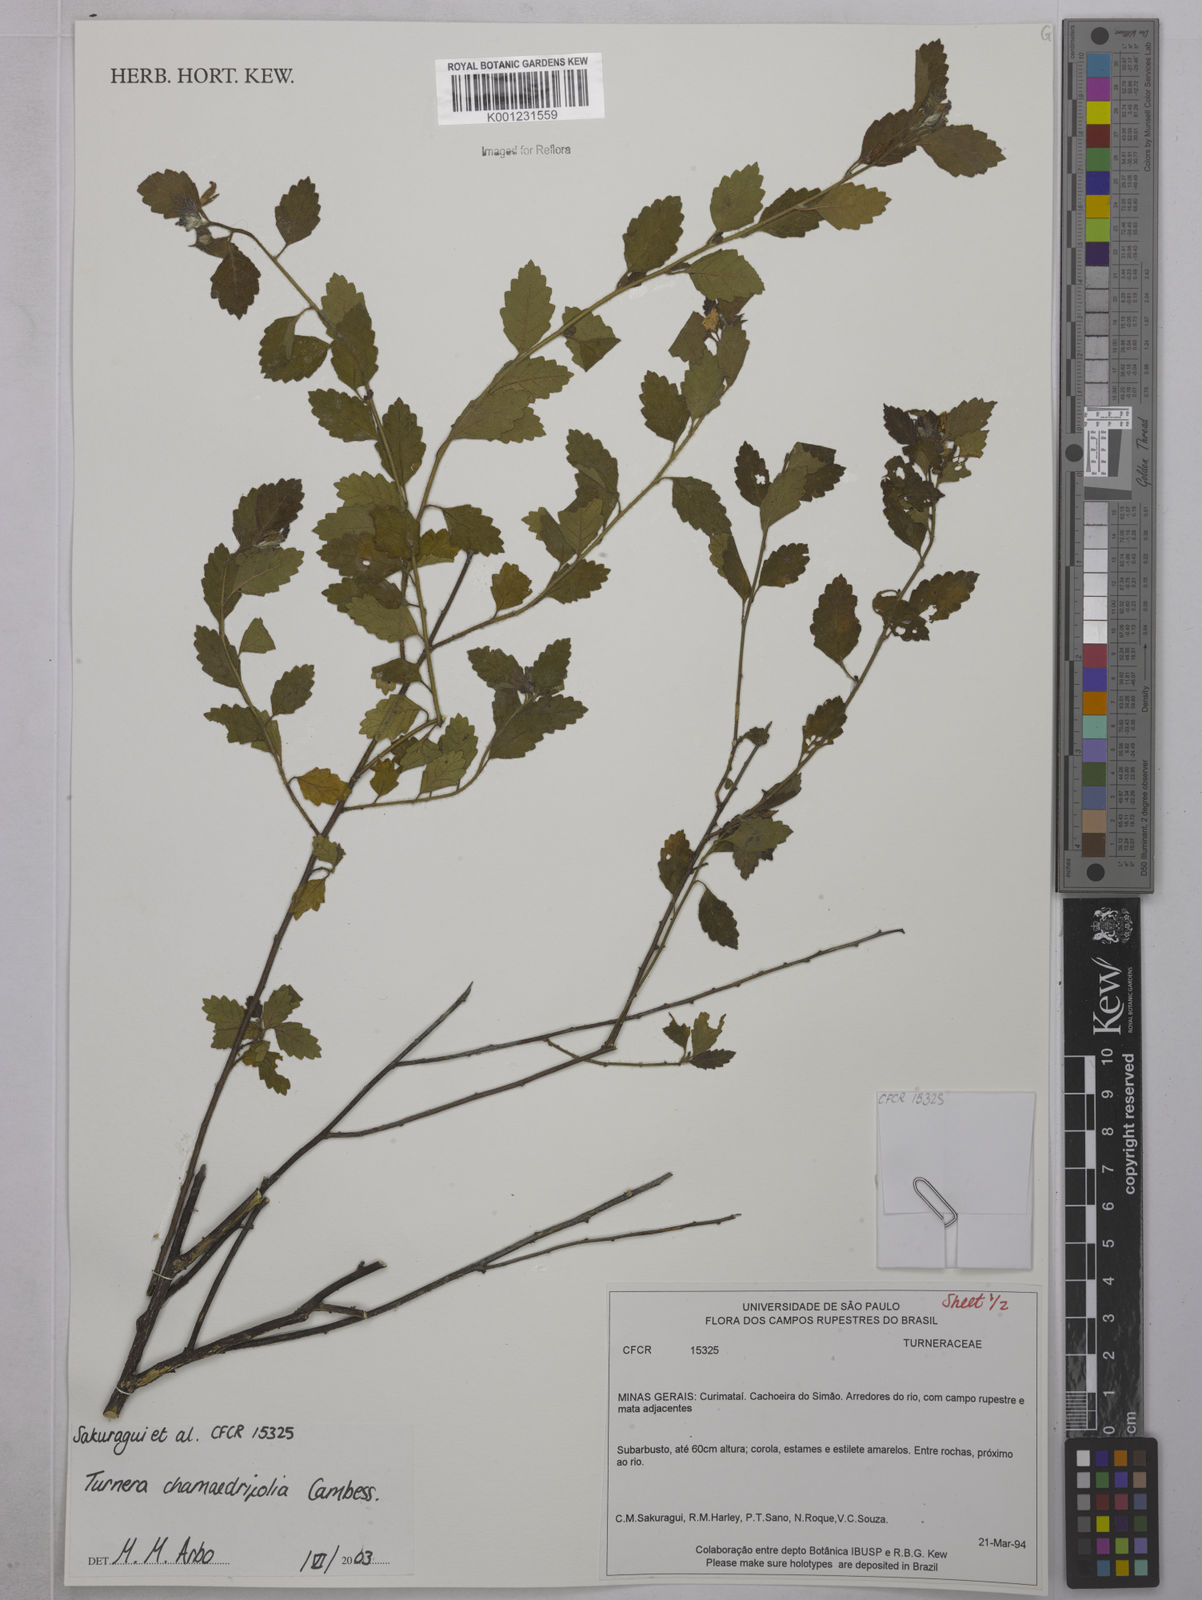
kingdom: Plantae
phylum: Tracheophyta
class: Magnoliopsida
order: Malpighiales
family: Turneraceae
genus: Turnera
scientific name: Turnera chamaedrifolia
